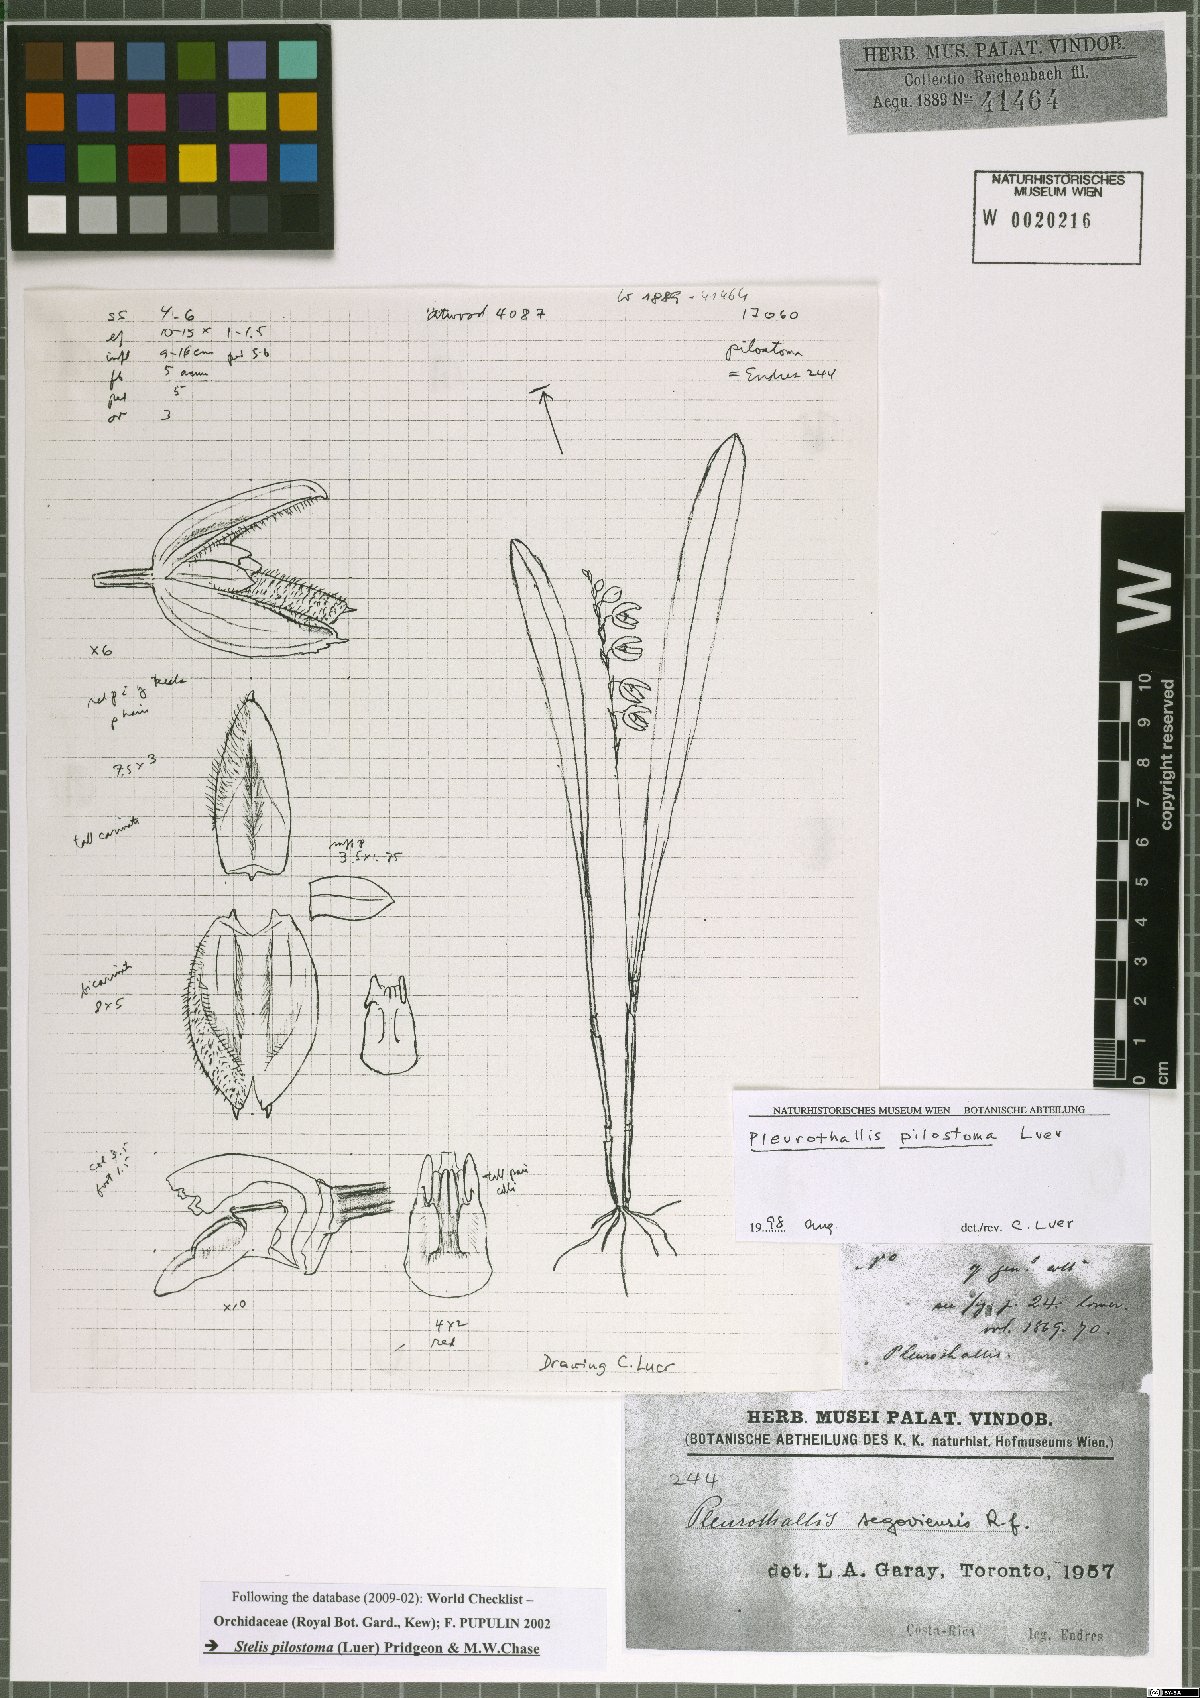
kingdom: Plantae
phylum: Tracheophyta
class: Liliopsida
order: Asparagales
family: Orchidaceae
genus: Stelis
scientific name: Stelis pilostoma
